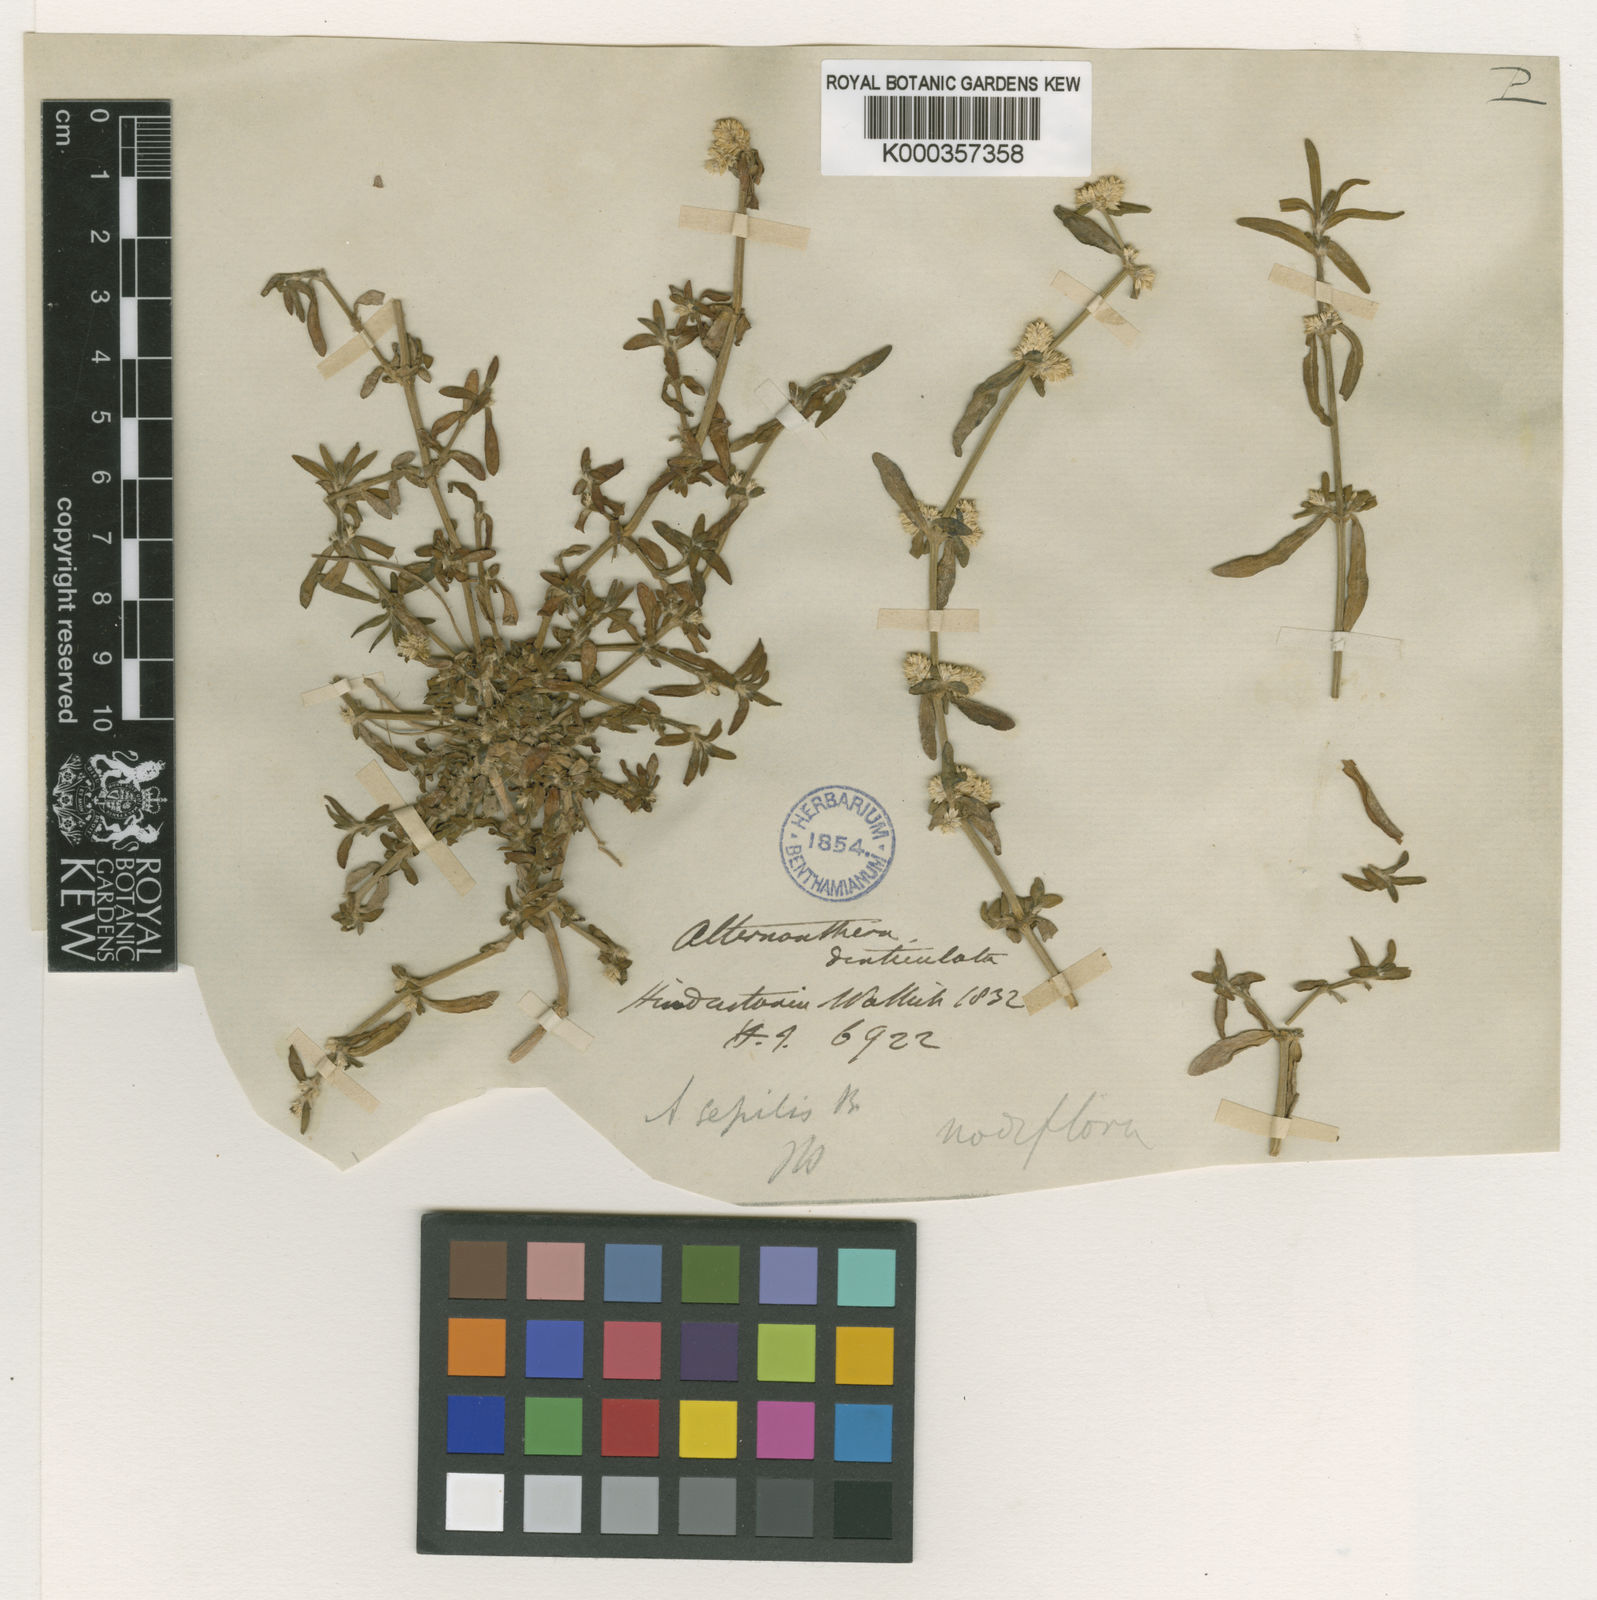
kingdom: Plantae
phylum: Tracheophyta
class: Magnoliopsida
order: Caryophyllales
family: Amaranthaceae
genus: Alternanthera
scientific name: Alternanthera sessilis
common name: Sessile joyweed
